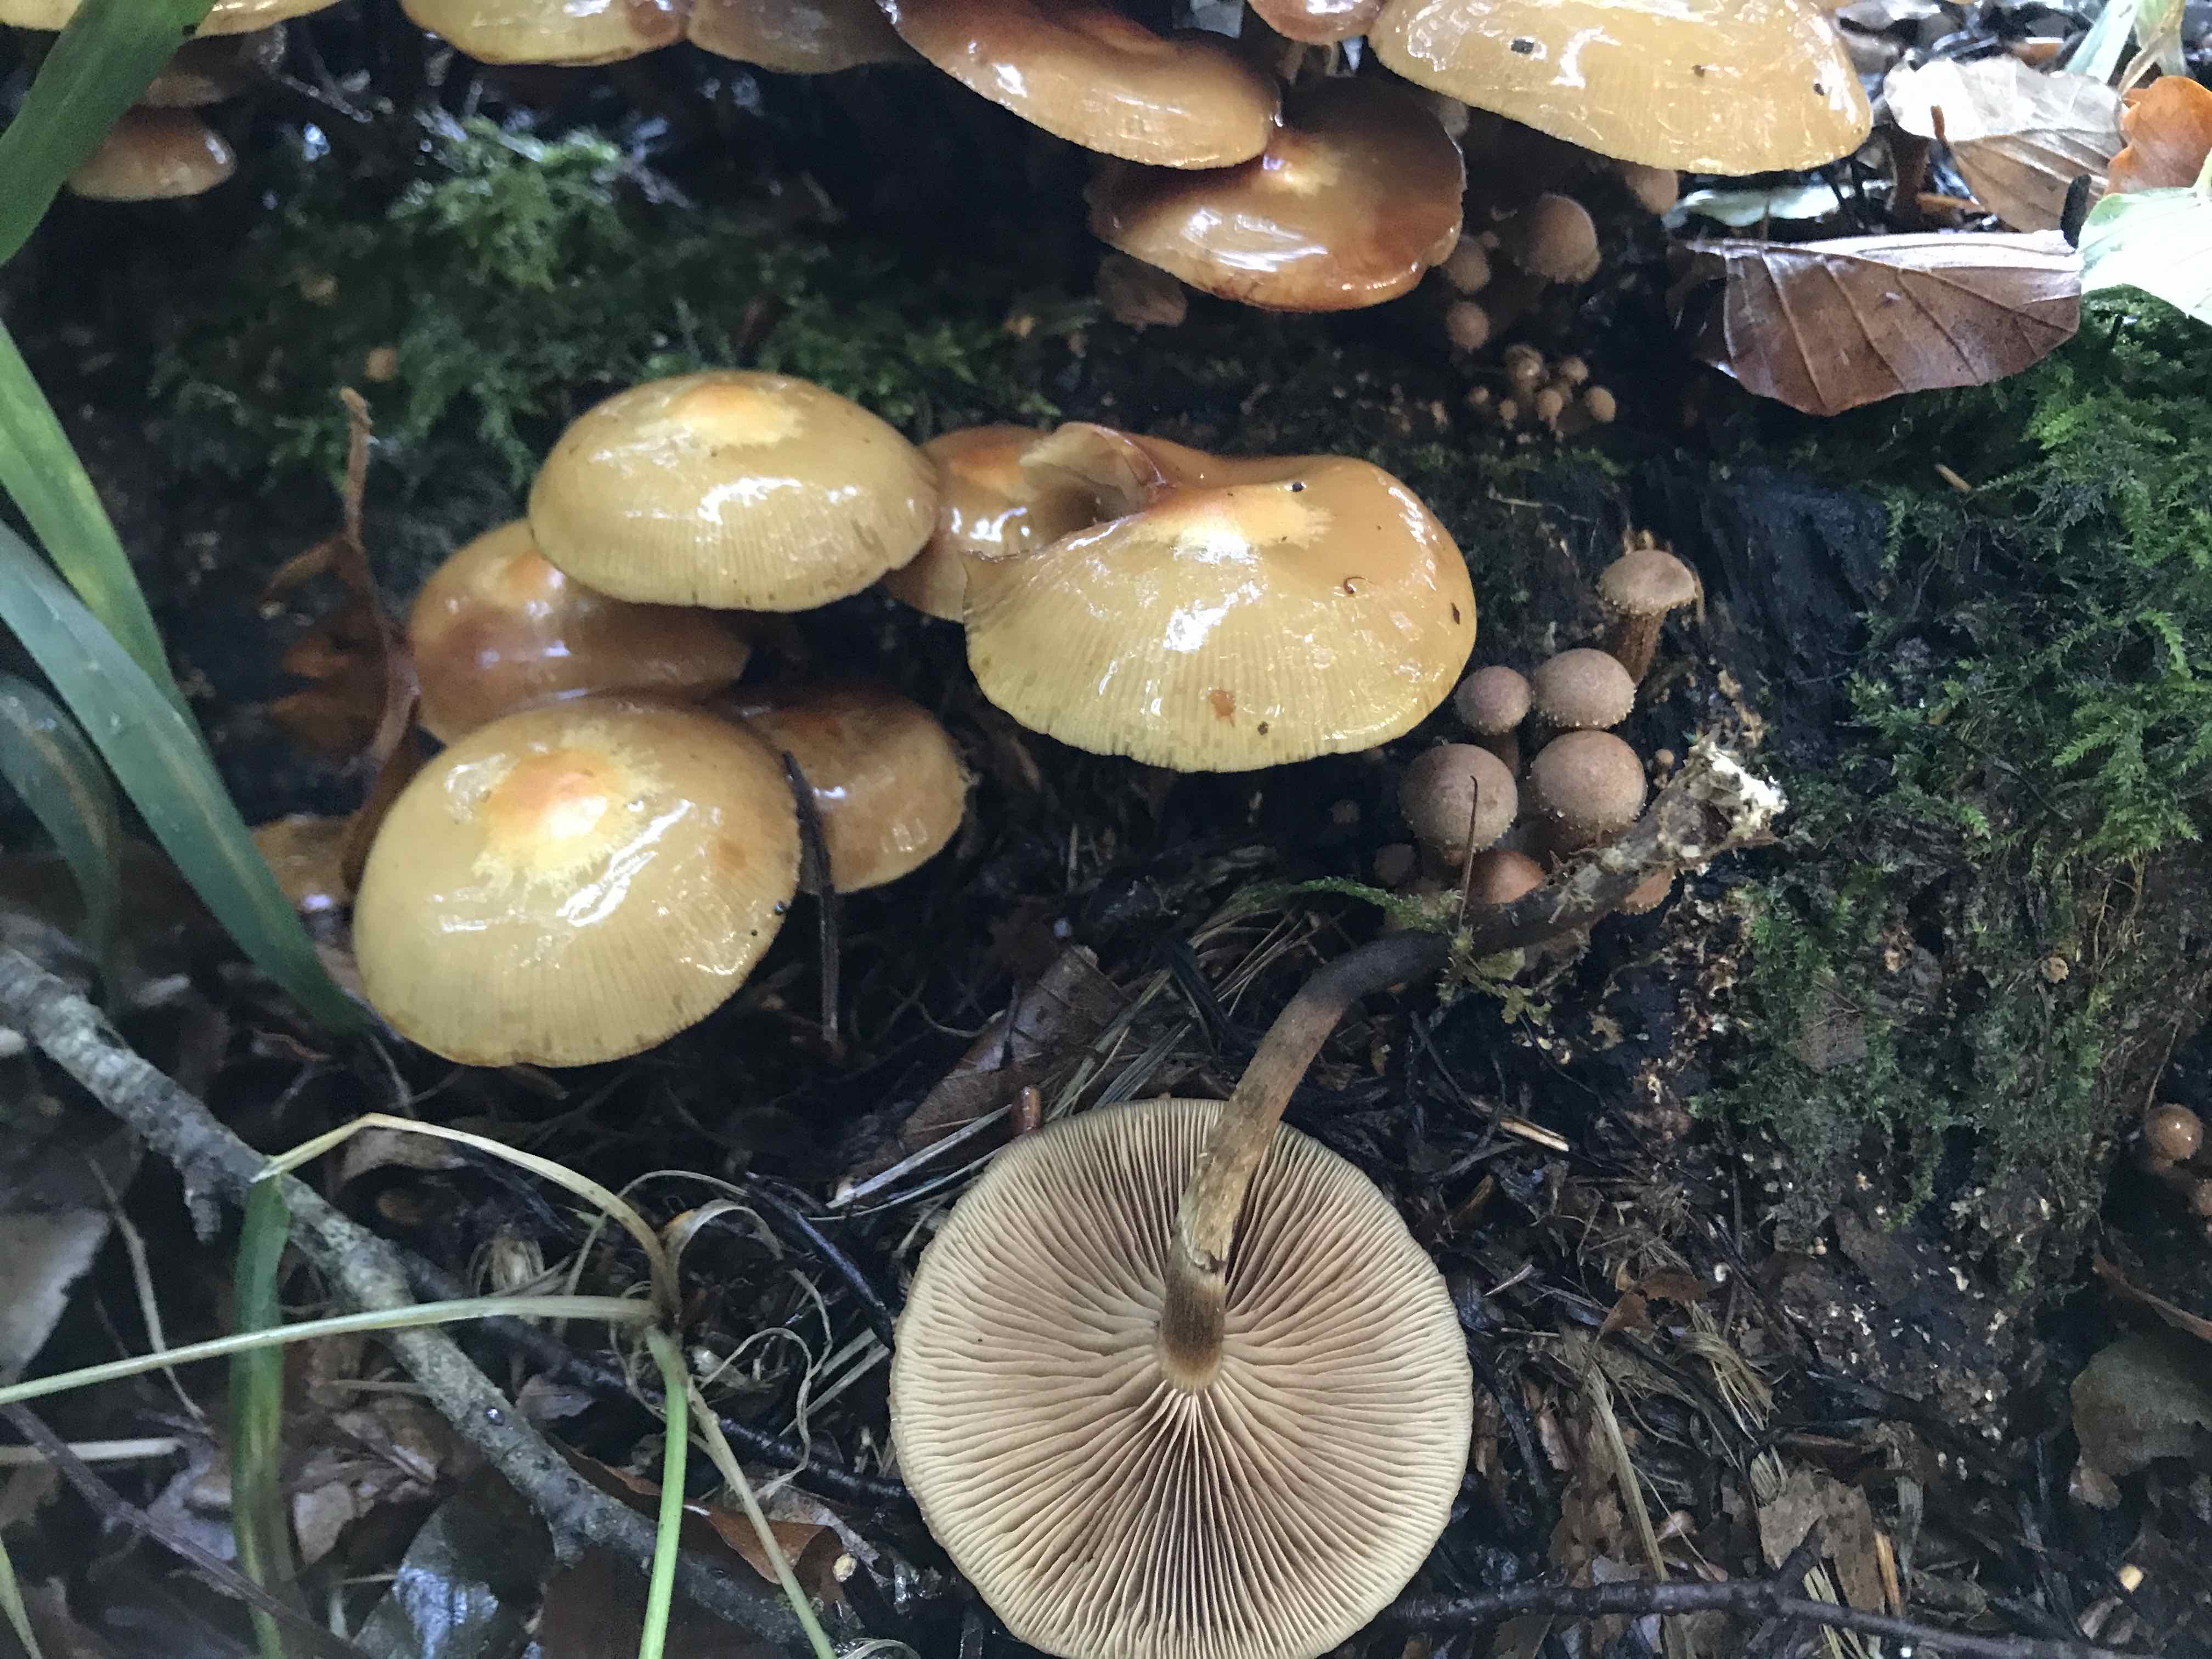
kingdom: Fungi
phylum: Basidiomycota
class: Agaricomycetes
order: Agaricales
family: Strophariaceae
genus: Kuehneromyces
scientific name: Kuehneromyces mutabilis
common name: foranderlig skælhat
